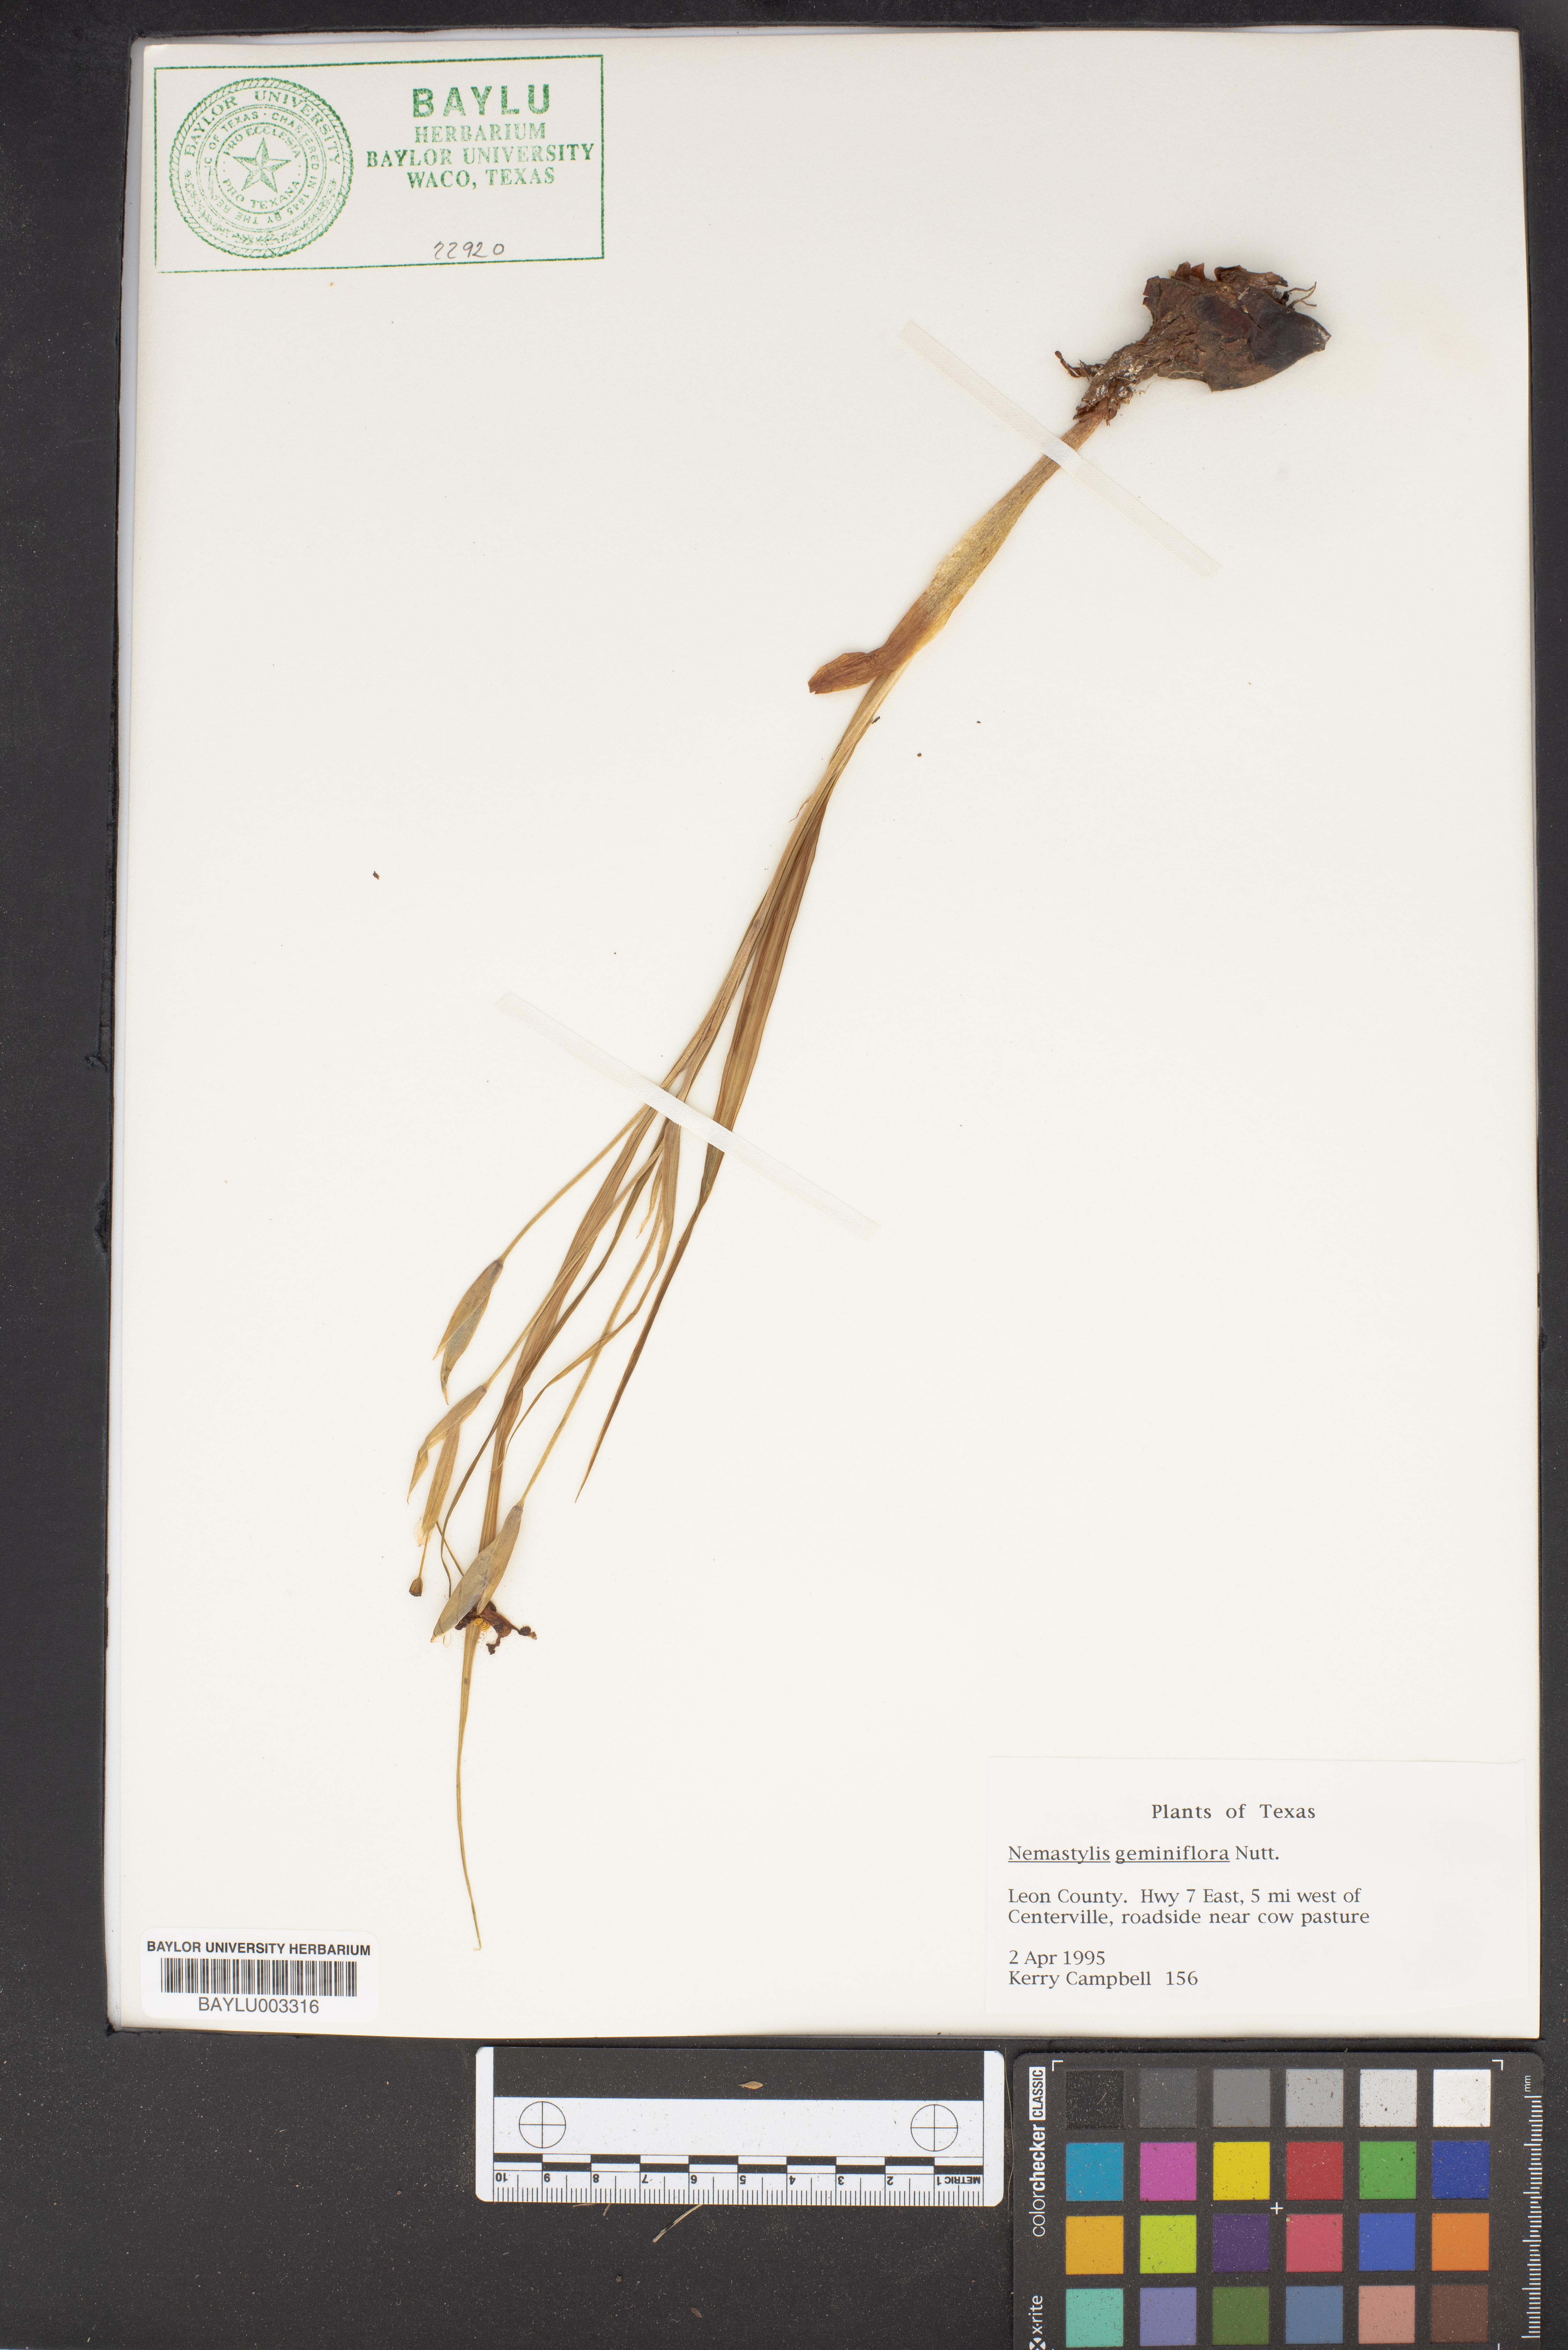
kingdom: Plantae
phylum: Tracheophyta
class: Liliopsida
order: Asparagales
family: Iridaceae
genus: Nemastylis
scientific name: Nemastylis geminiflora
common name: Prairie celestial
